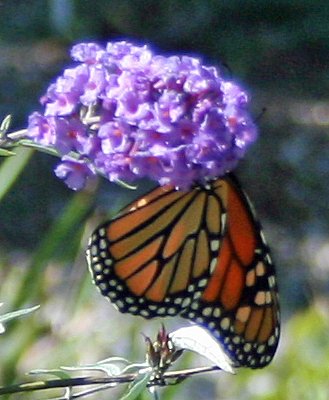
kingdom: Animalia
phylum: Arthropoda
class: Insecta
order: Lepidoptera
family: Nymphalidae
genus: Danaus
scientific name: Danaus plexippus
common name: Monarch
